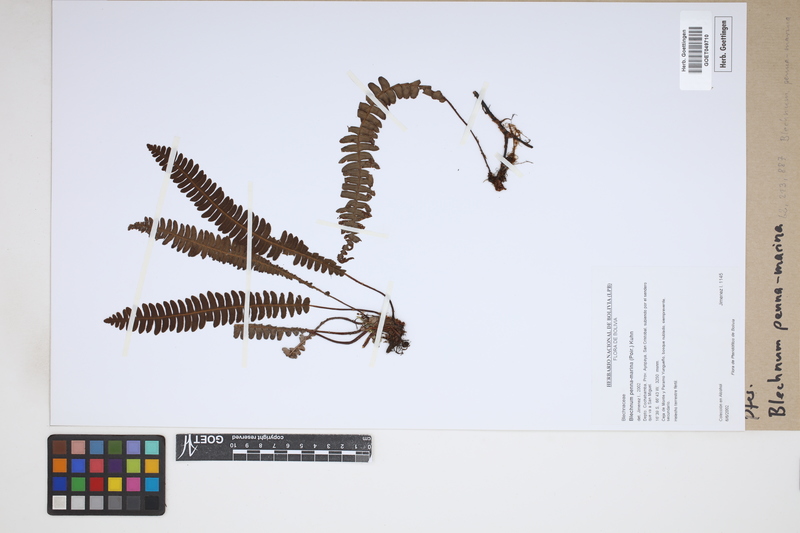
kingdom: Plantae
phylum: Tracheophyta
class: Polypodiopsida
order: Polypodiales
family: Blechnaceae
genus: Austroblechnum
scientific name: Austroblechnum penna-marina
